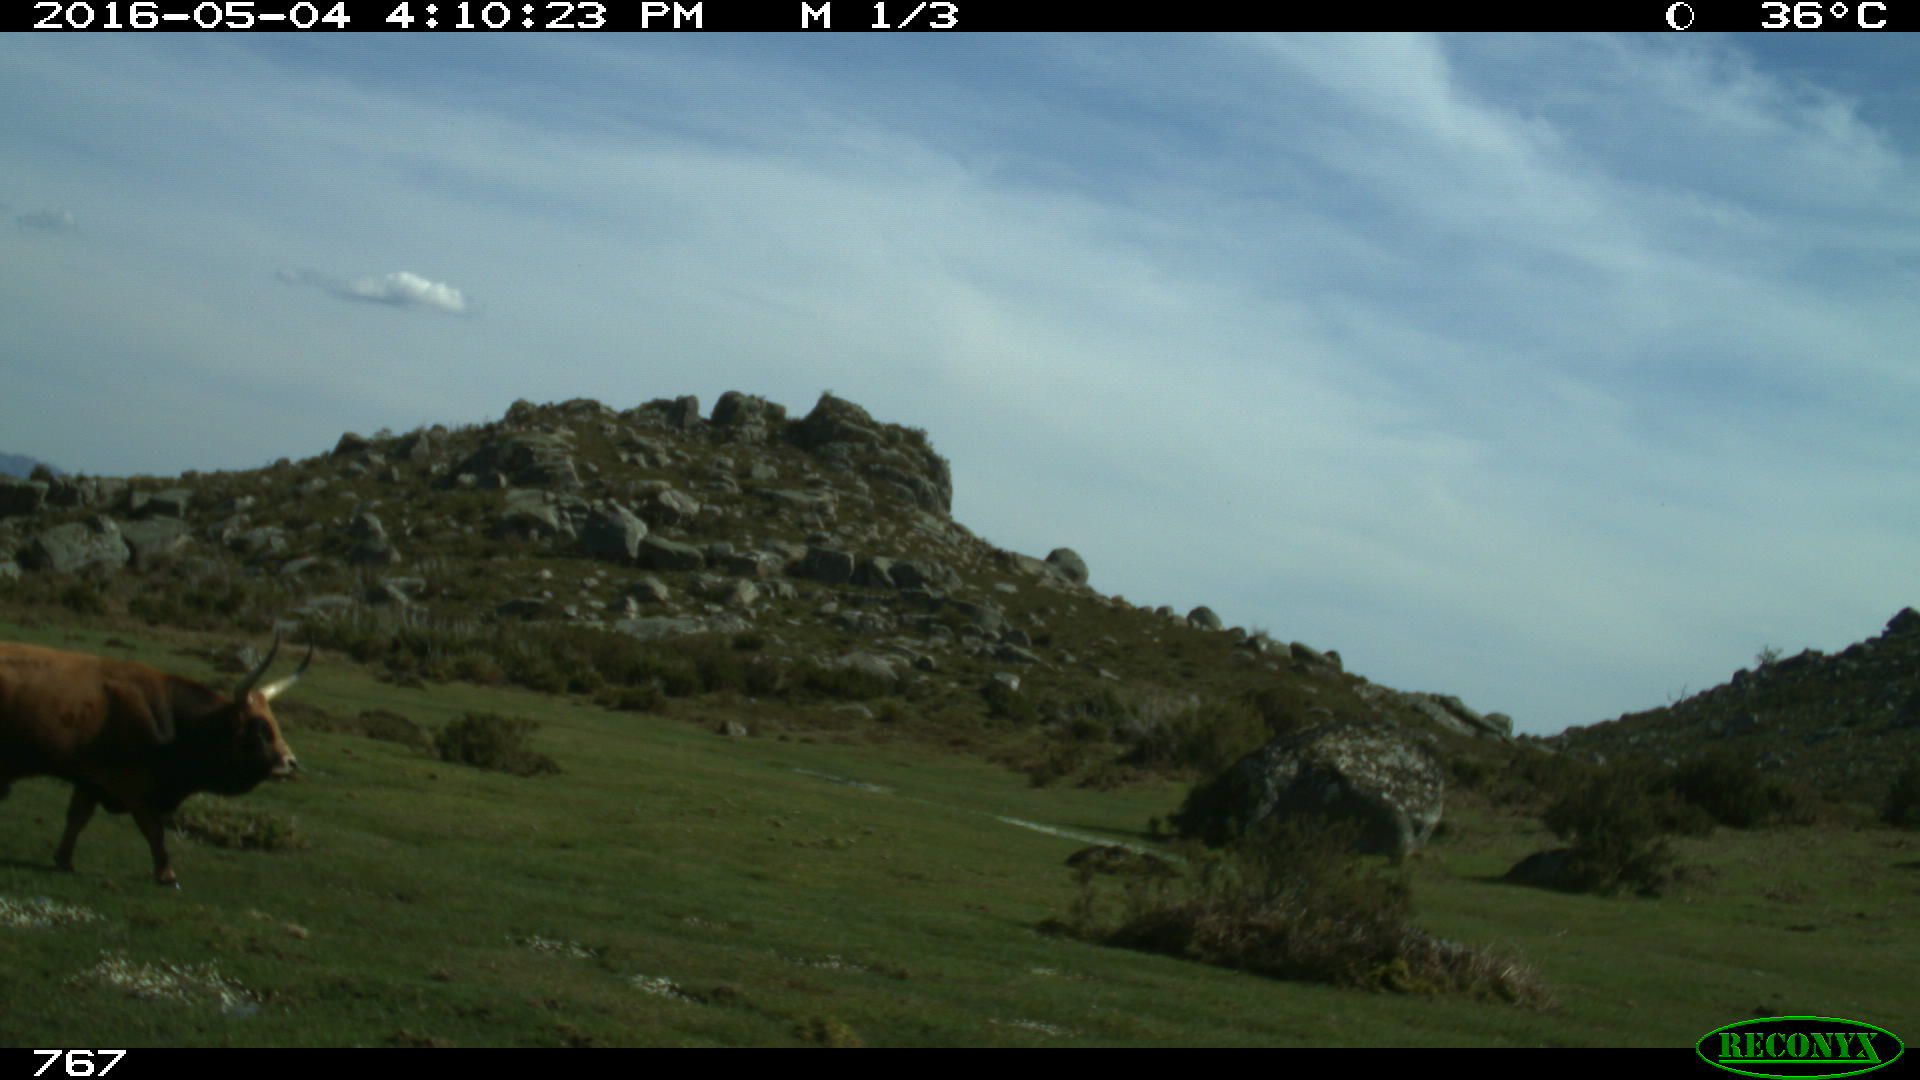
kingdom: Animalia
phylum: Chordata
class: Mammalia
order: Artiodactyla
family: Bovidae
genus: Bos
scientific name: Bos taurus
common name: Domesticated cattle
